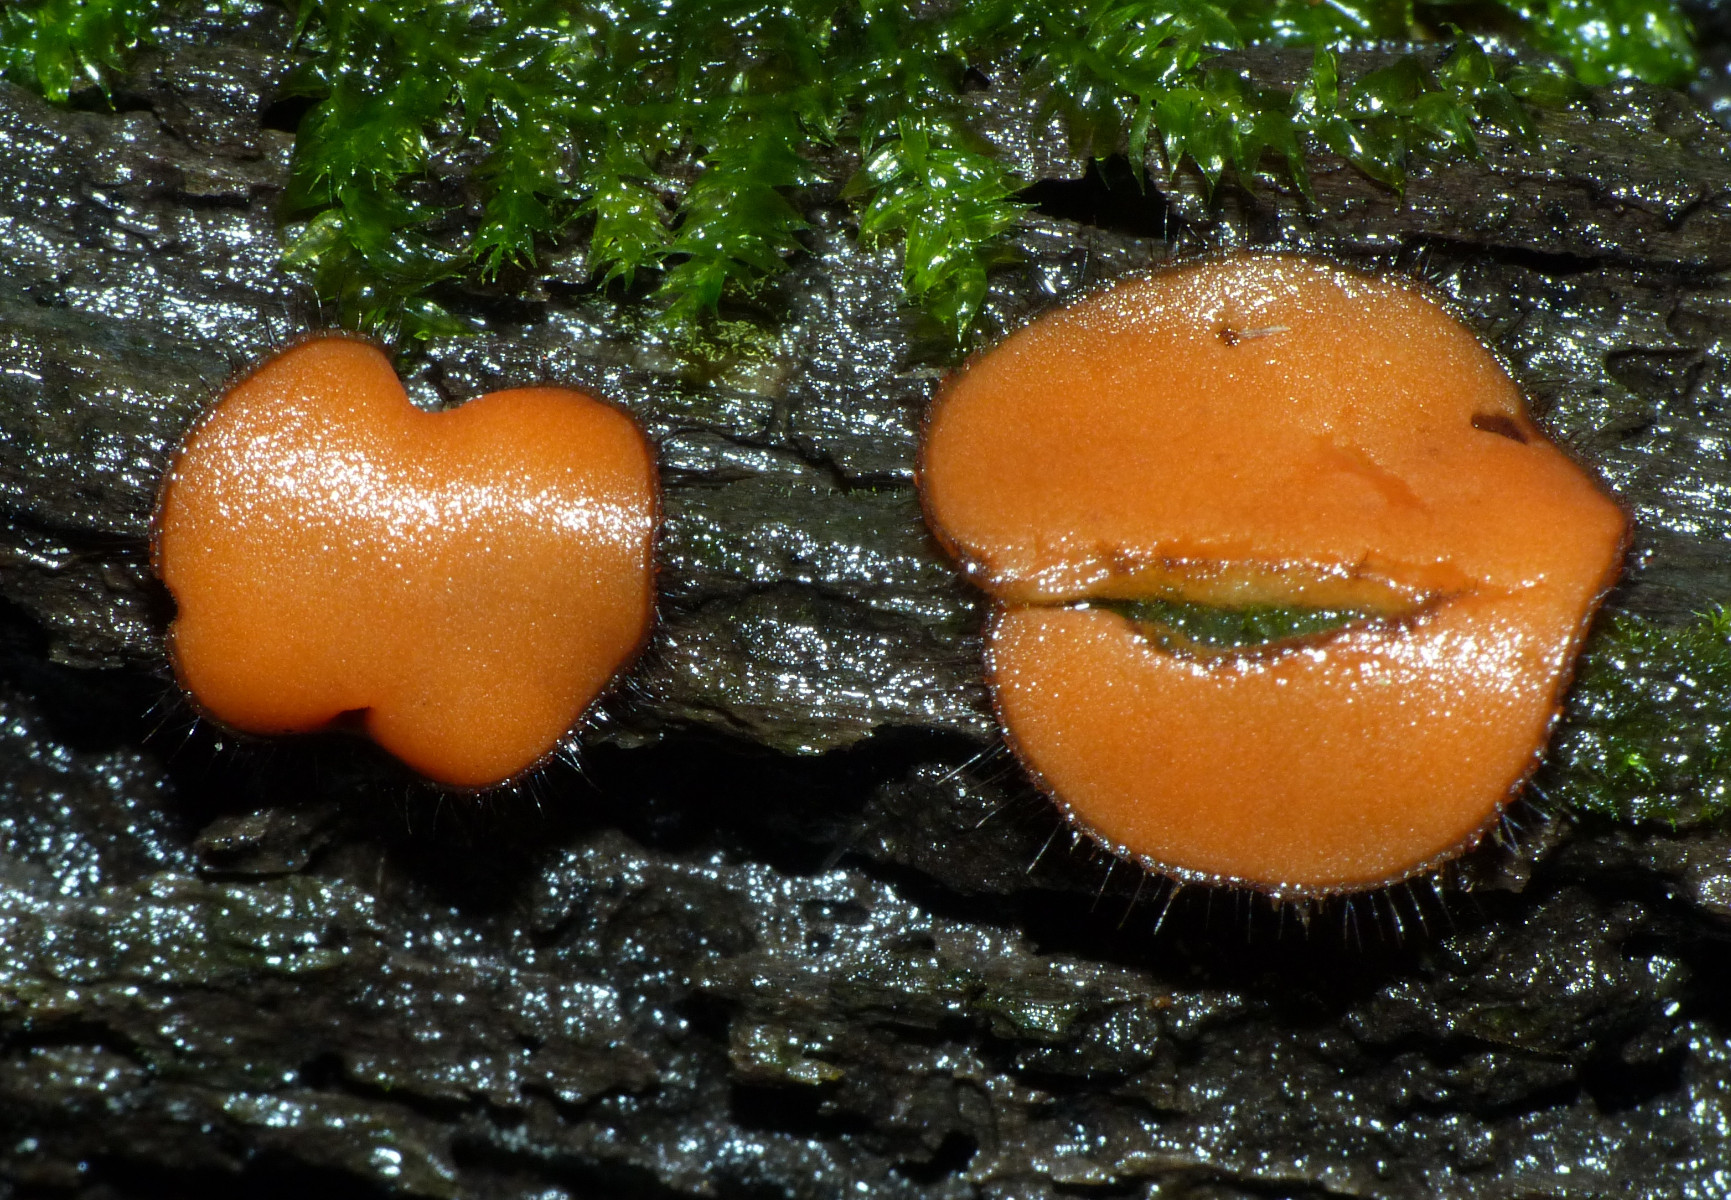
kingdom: Fungi
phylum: Ascomycota
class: Pezizomycetes
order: Pezizales
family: Pyronemataceae
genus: Scutellinia
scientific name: Scutellinia scutellata
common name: frynset skjoldbæger
